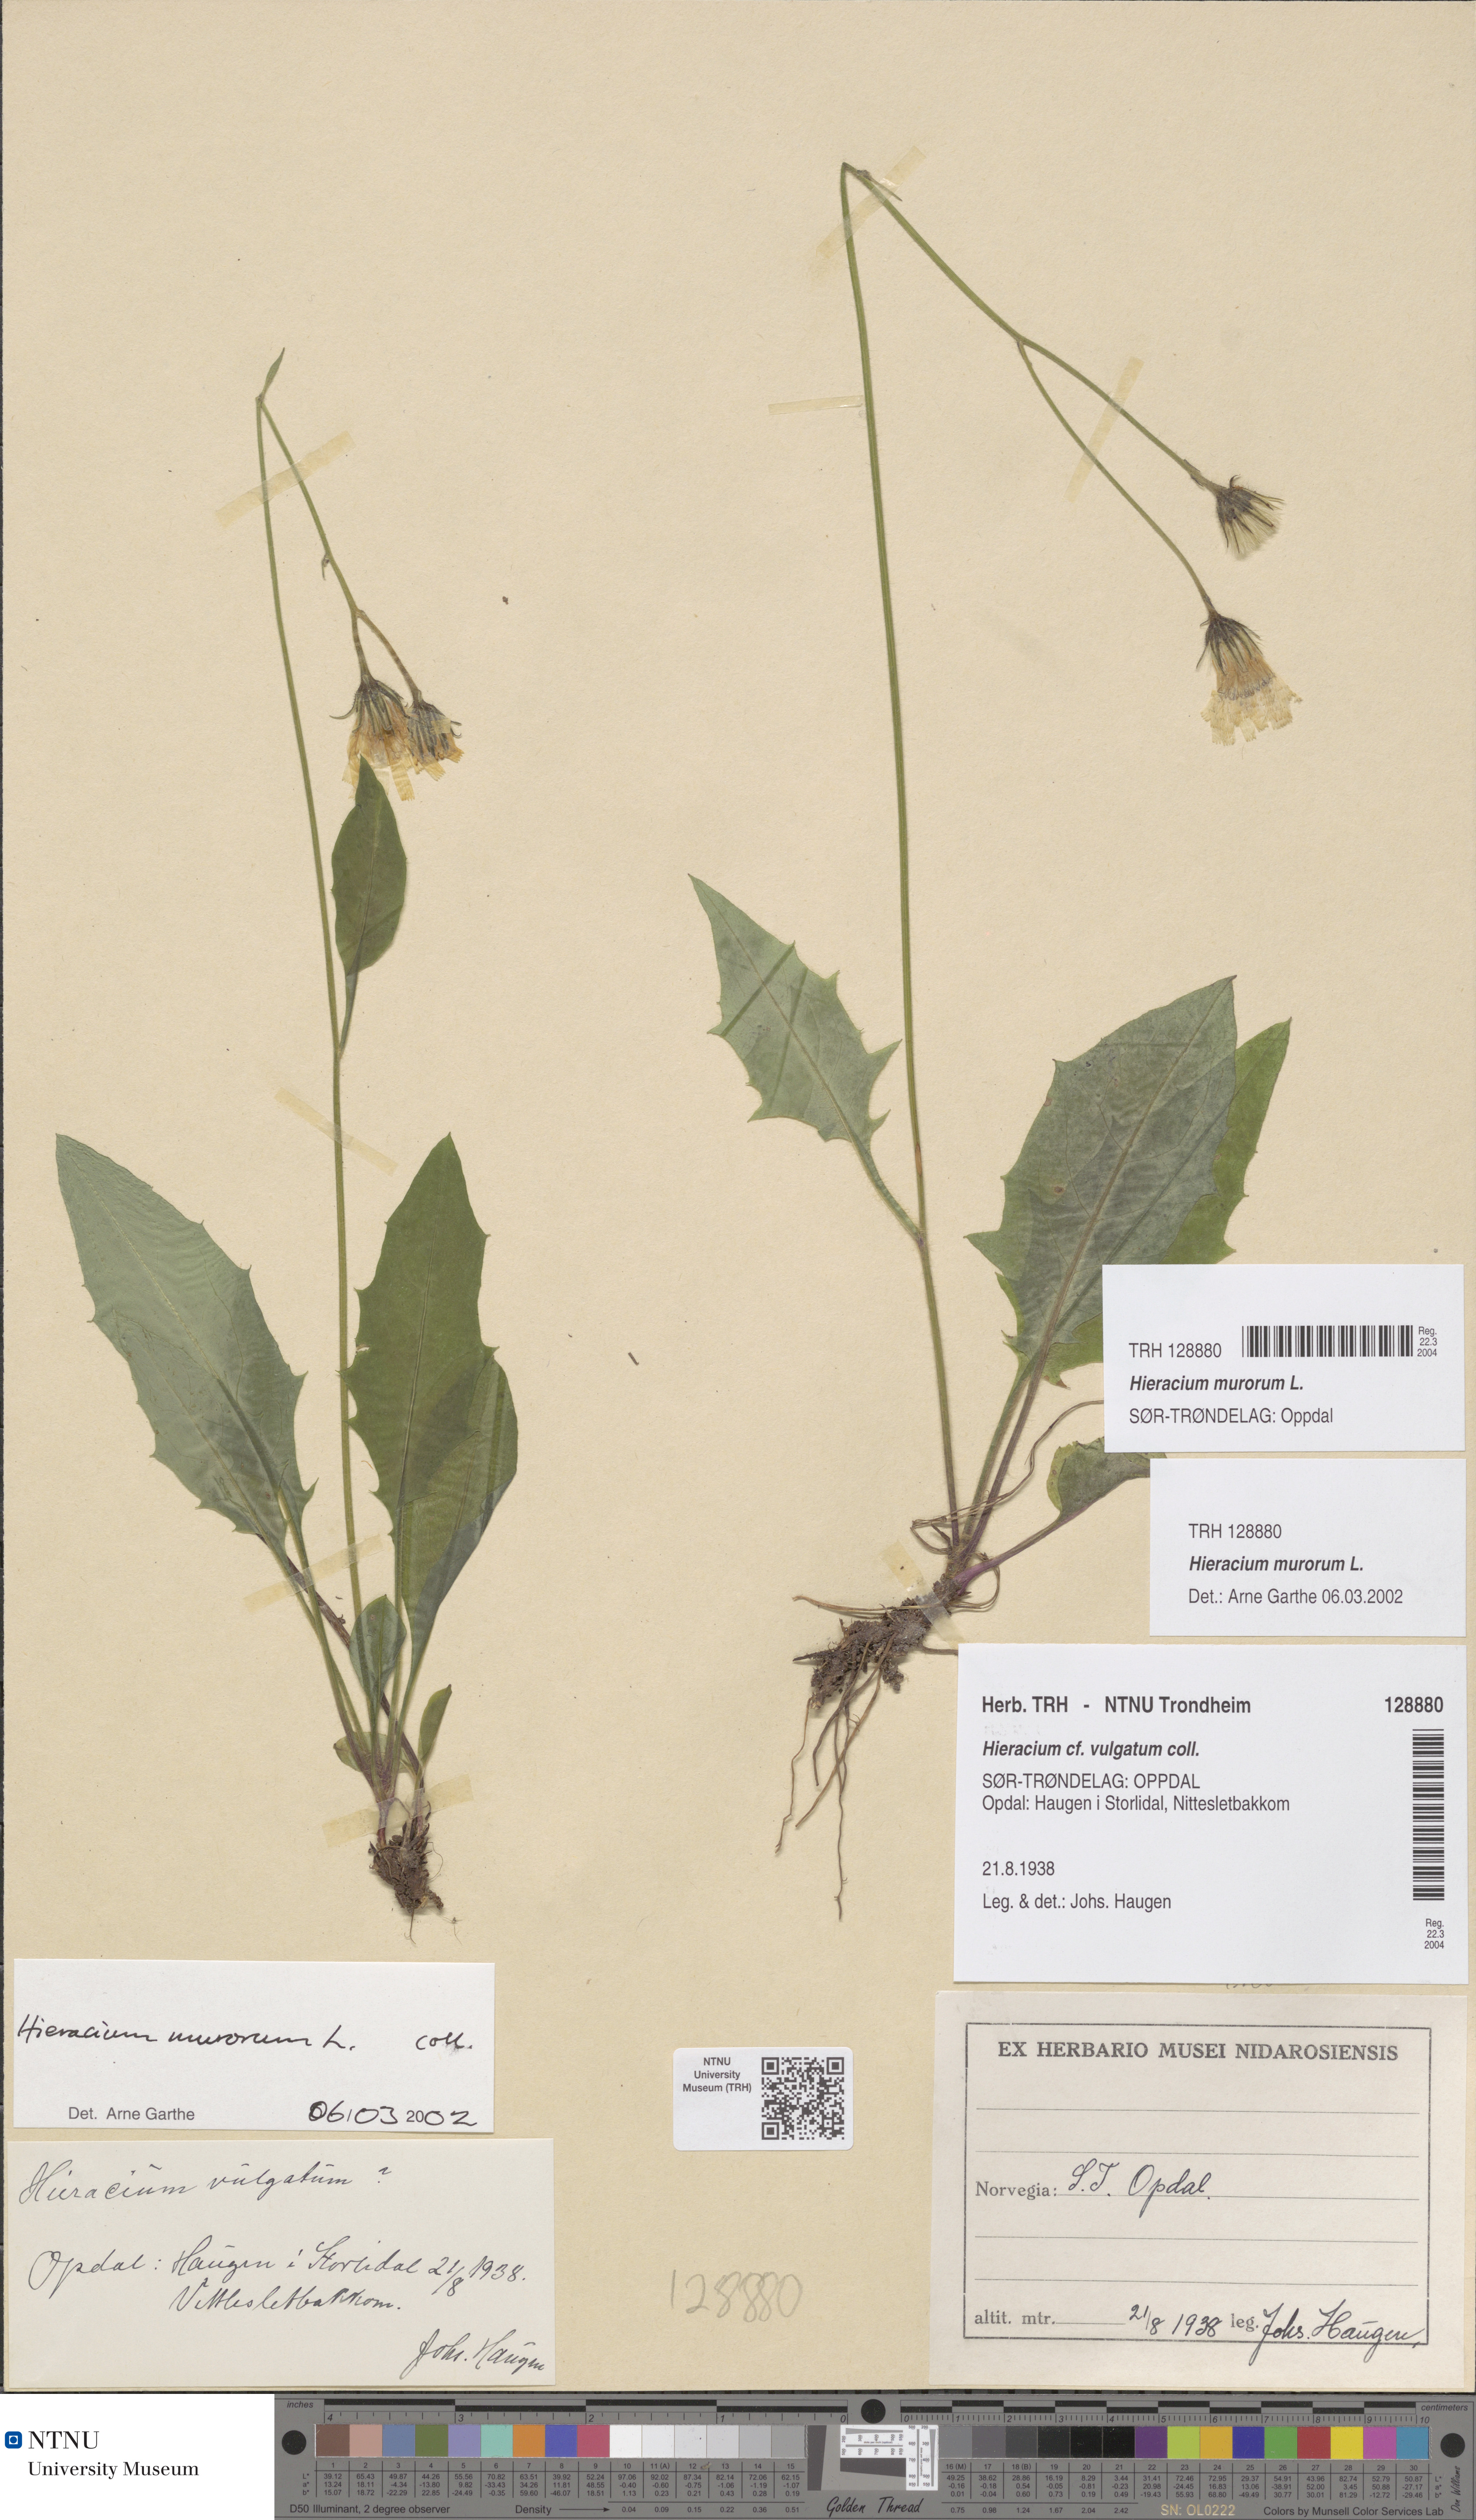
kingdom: Plantae
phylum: Tracheophyta
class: Magnoliopsida
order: Asterales
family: Asteraceae
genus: Hieracium
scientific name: Hieracium murorum
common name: Wall hawkweed
